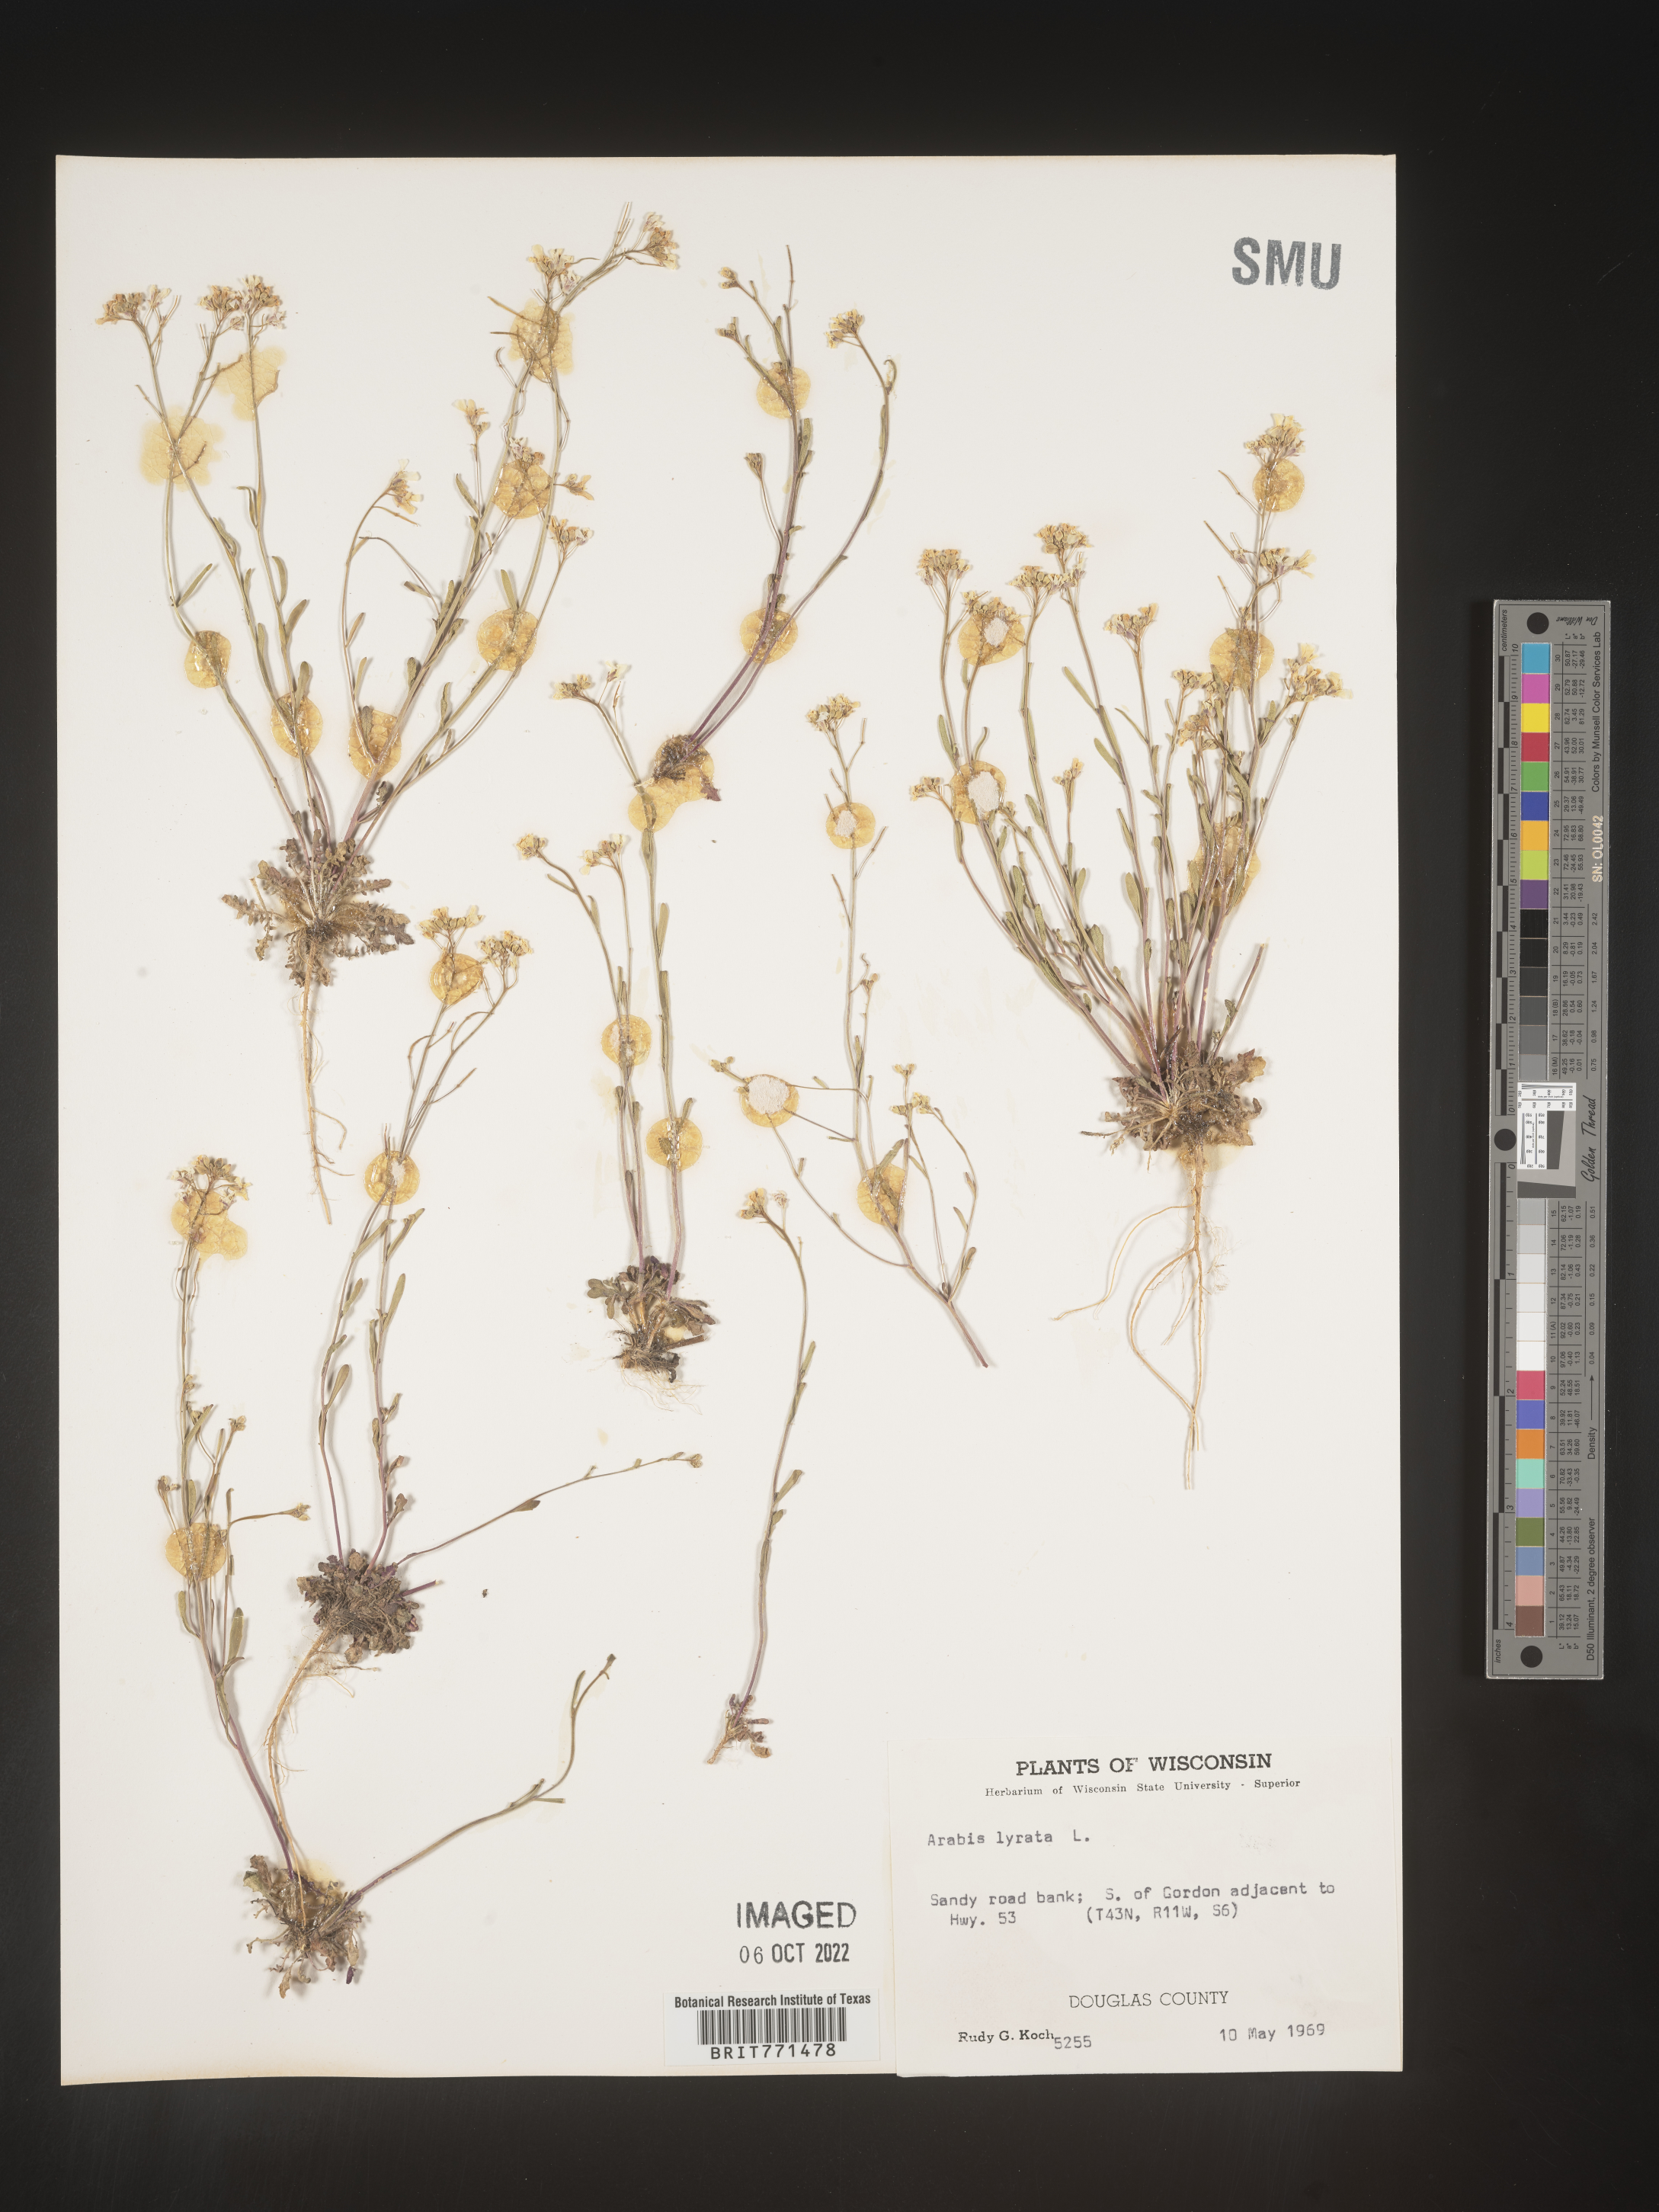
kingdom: Plantae
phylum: Tracheophyta
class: Magnoliopsida
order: Brassicales
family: Brassicaceae
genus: Arabidopsis
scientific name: Arabidopsis lyrata
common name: Lyrate rockcress
